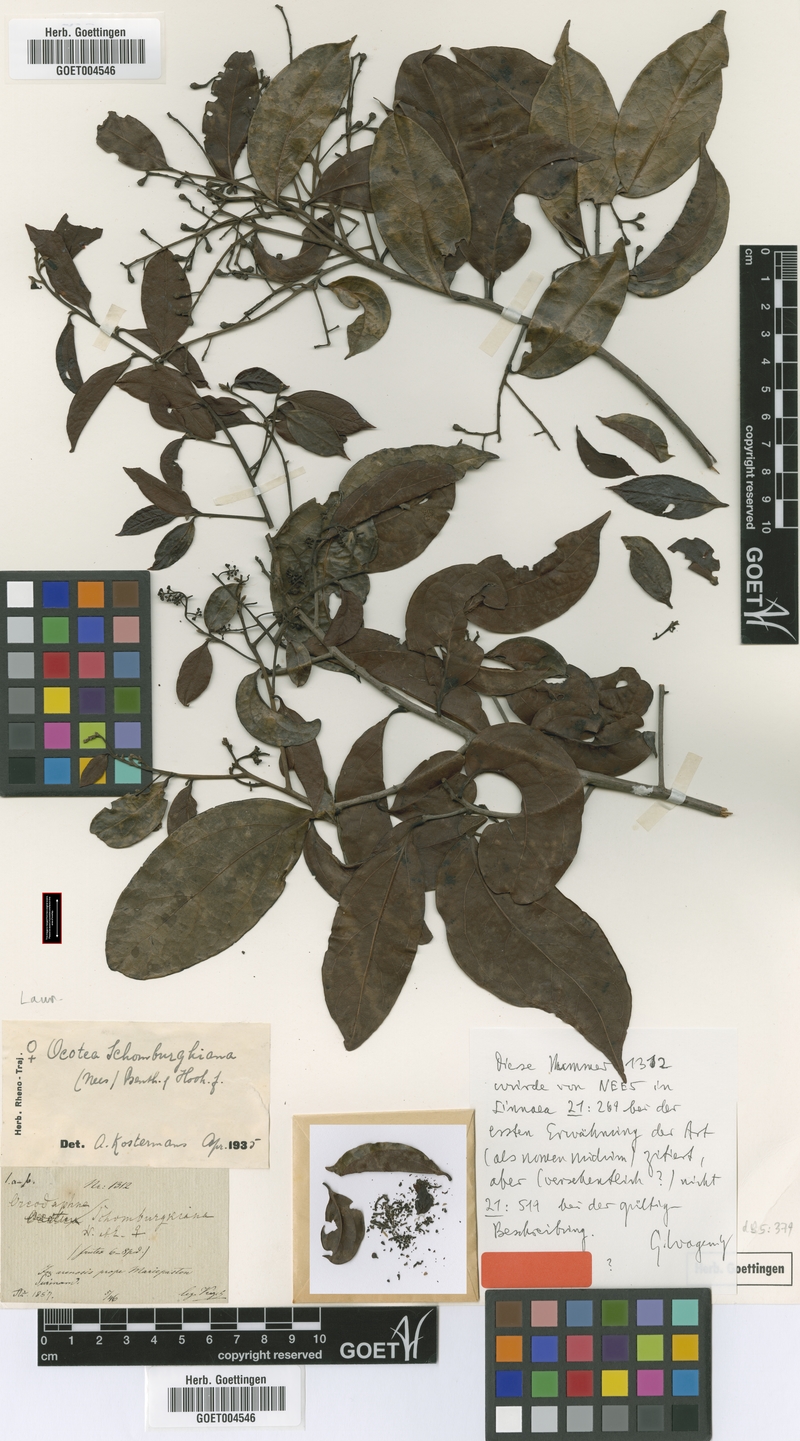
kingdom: Plantae
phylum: Tracheophyta
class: Magnoliopsida
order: Laurales
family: Lauraceae
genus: Ocotea
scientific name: Ocotea schomburgkiana
